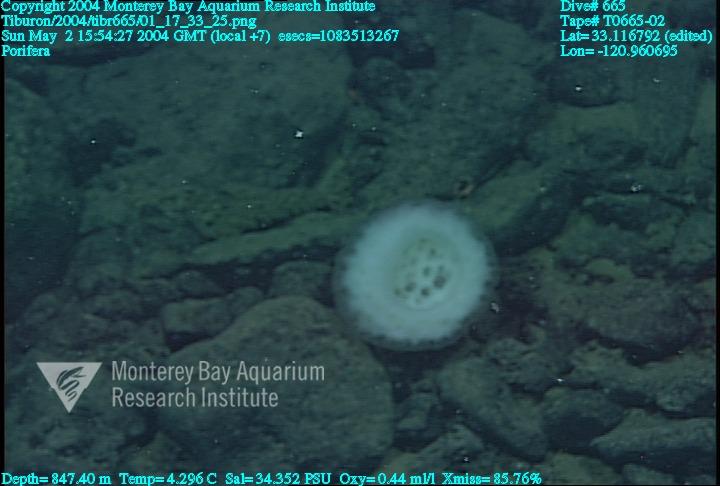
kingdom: Animalia
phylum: Porifera
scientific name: Porifera
